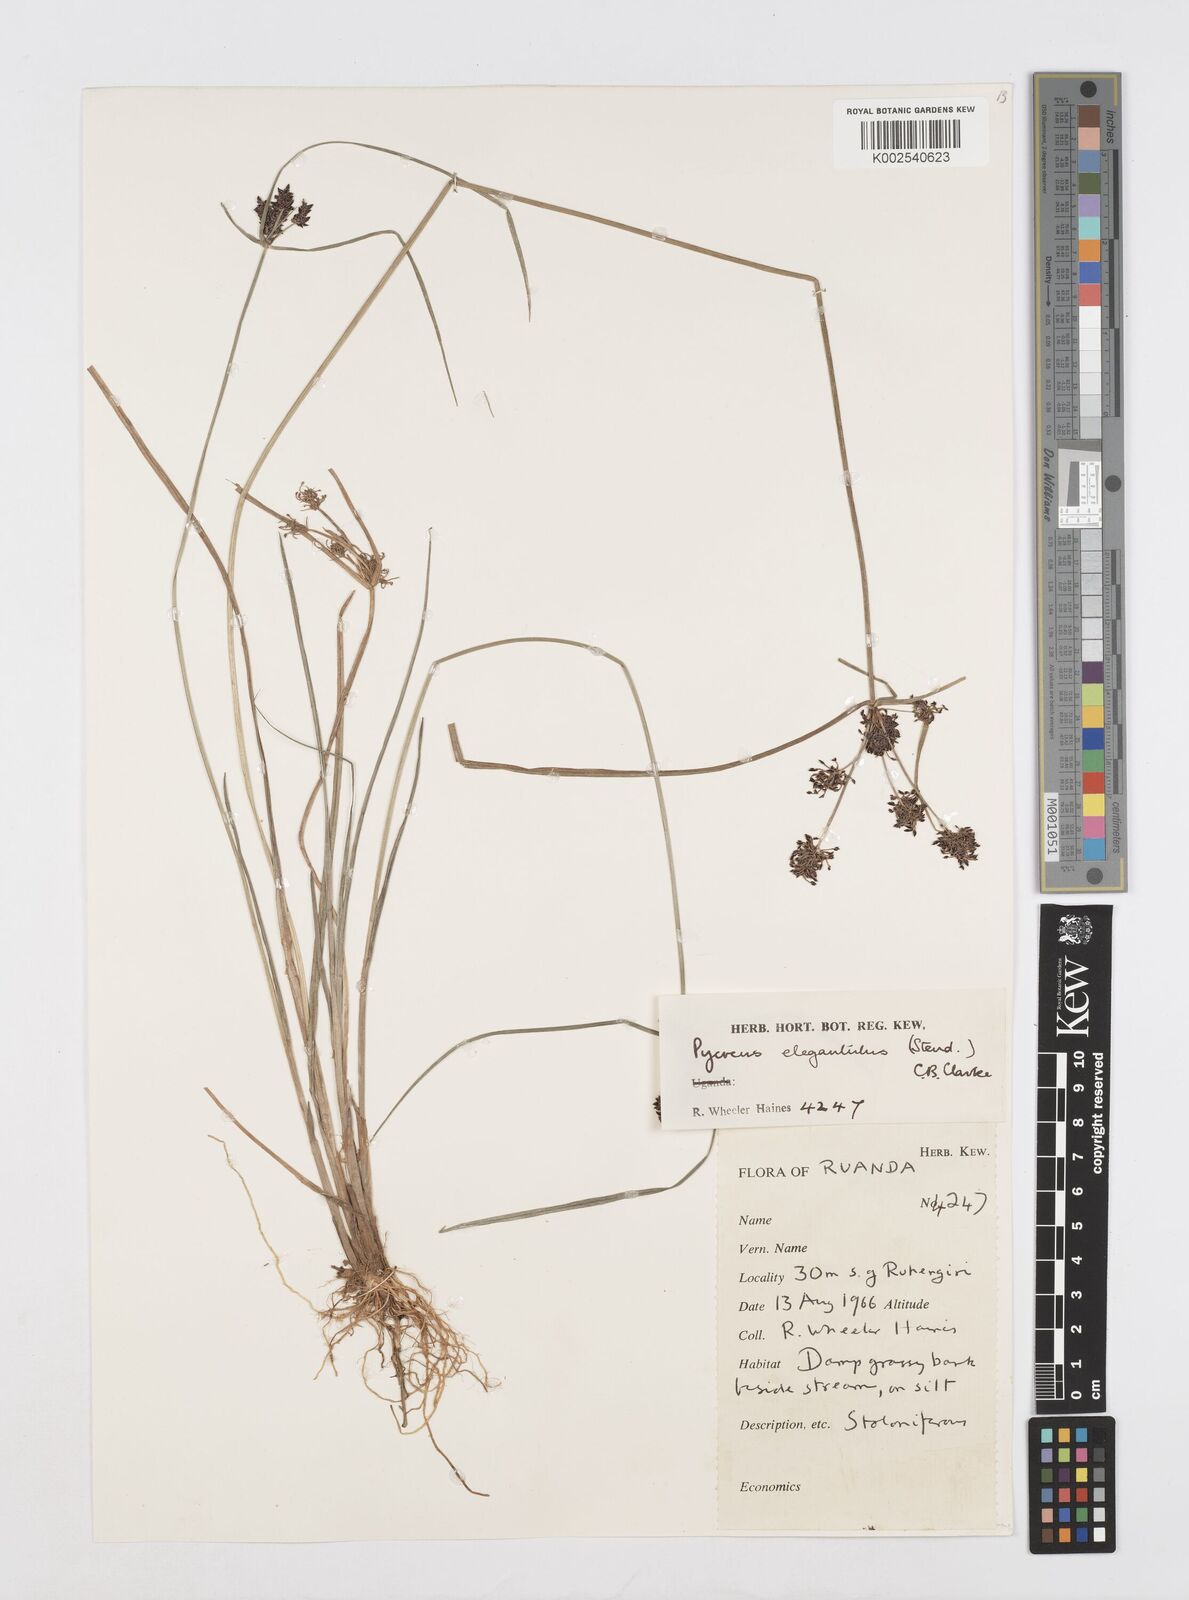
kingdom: Plantae
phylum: Tracheophyta
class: Liliopsida
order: Poales
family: Cyperaceae
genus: Cyperus
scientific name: Cyperus elegantulus
